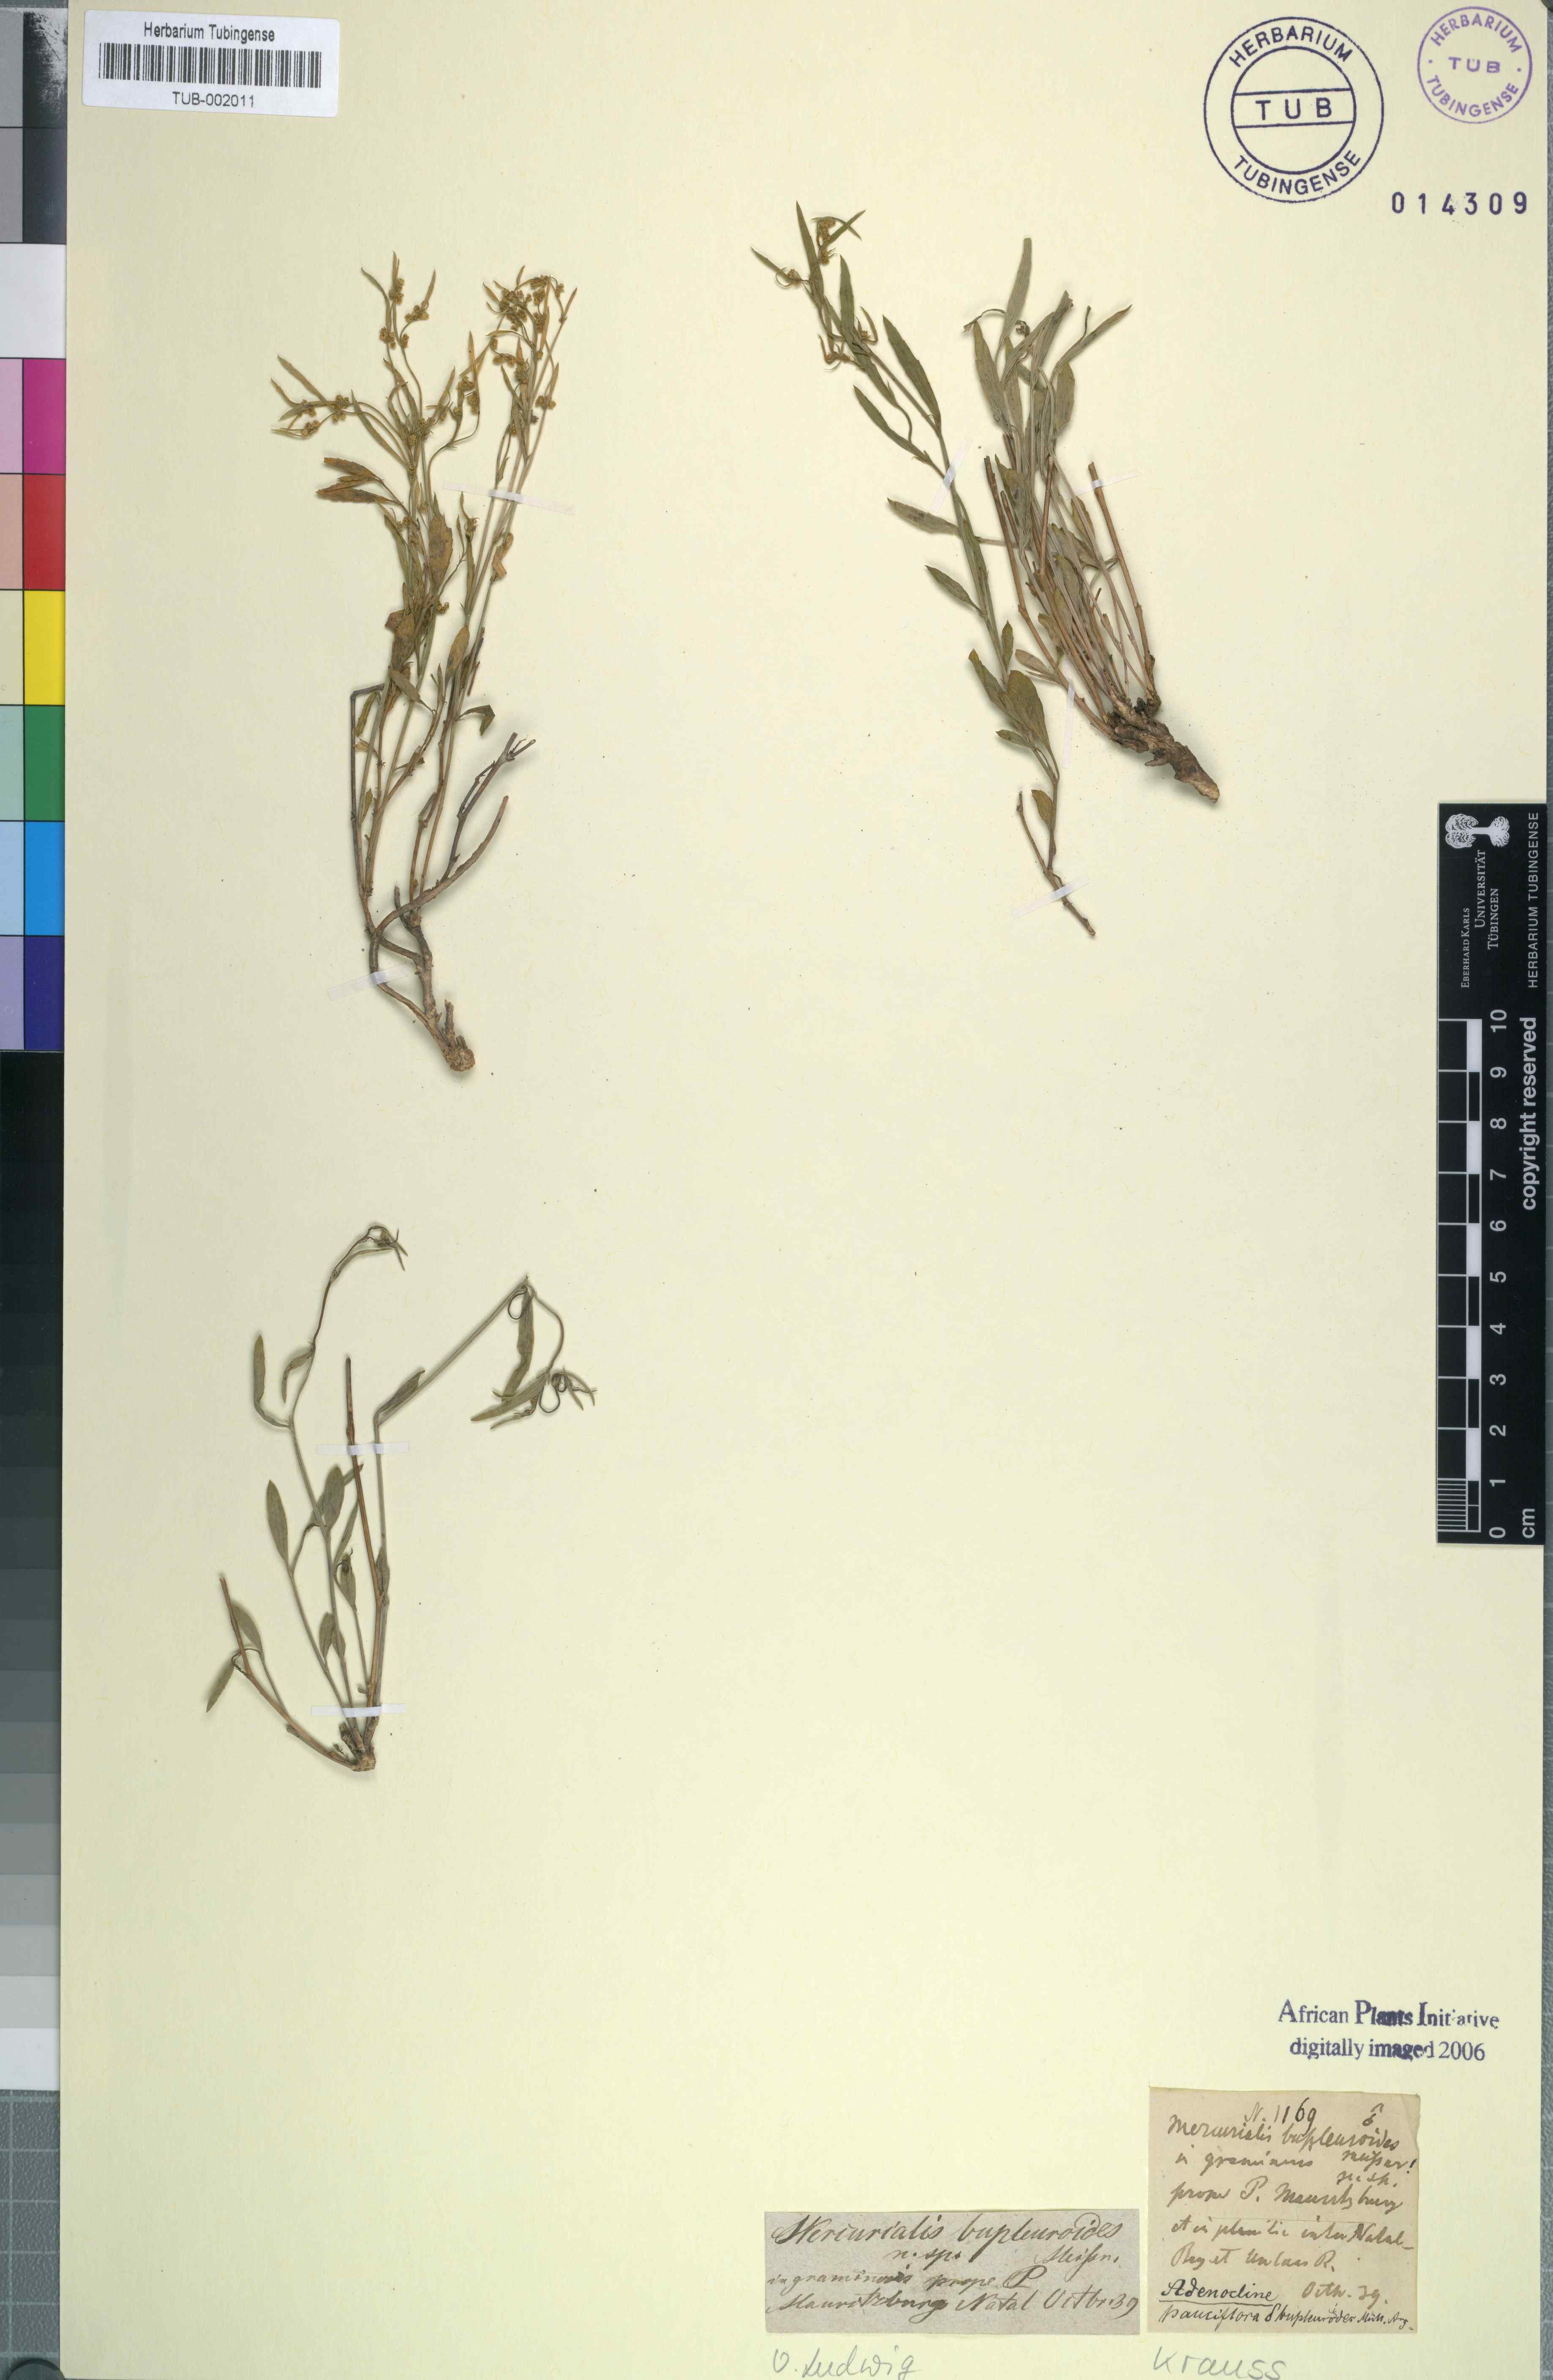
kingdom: Plantae
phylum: Tracheophyta
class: Magnoliopsida
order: Malpighiales
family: Euphorbiaceae
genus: Adenocline
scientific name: Adenocline pauciflora
